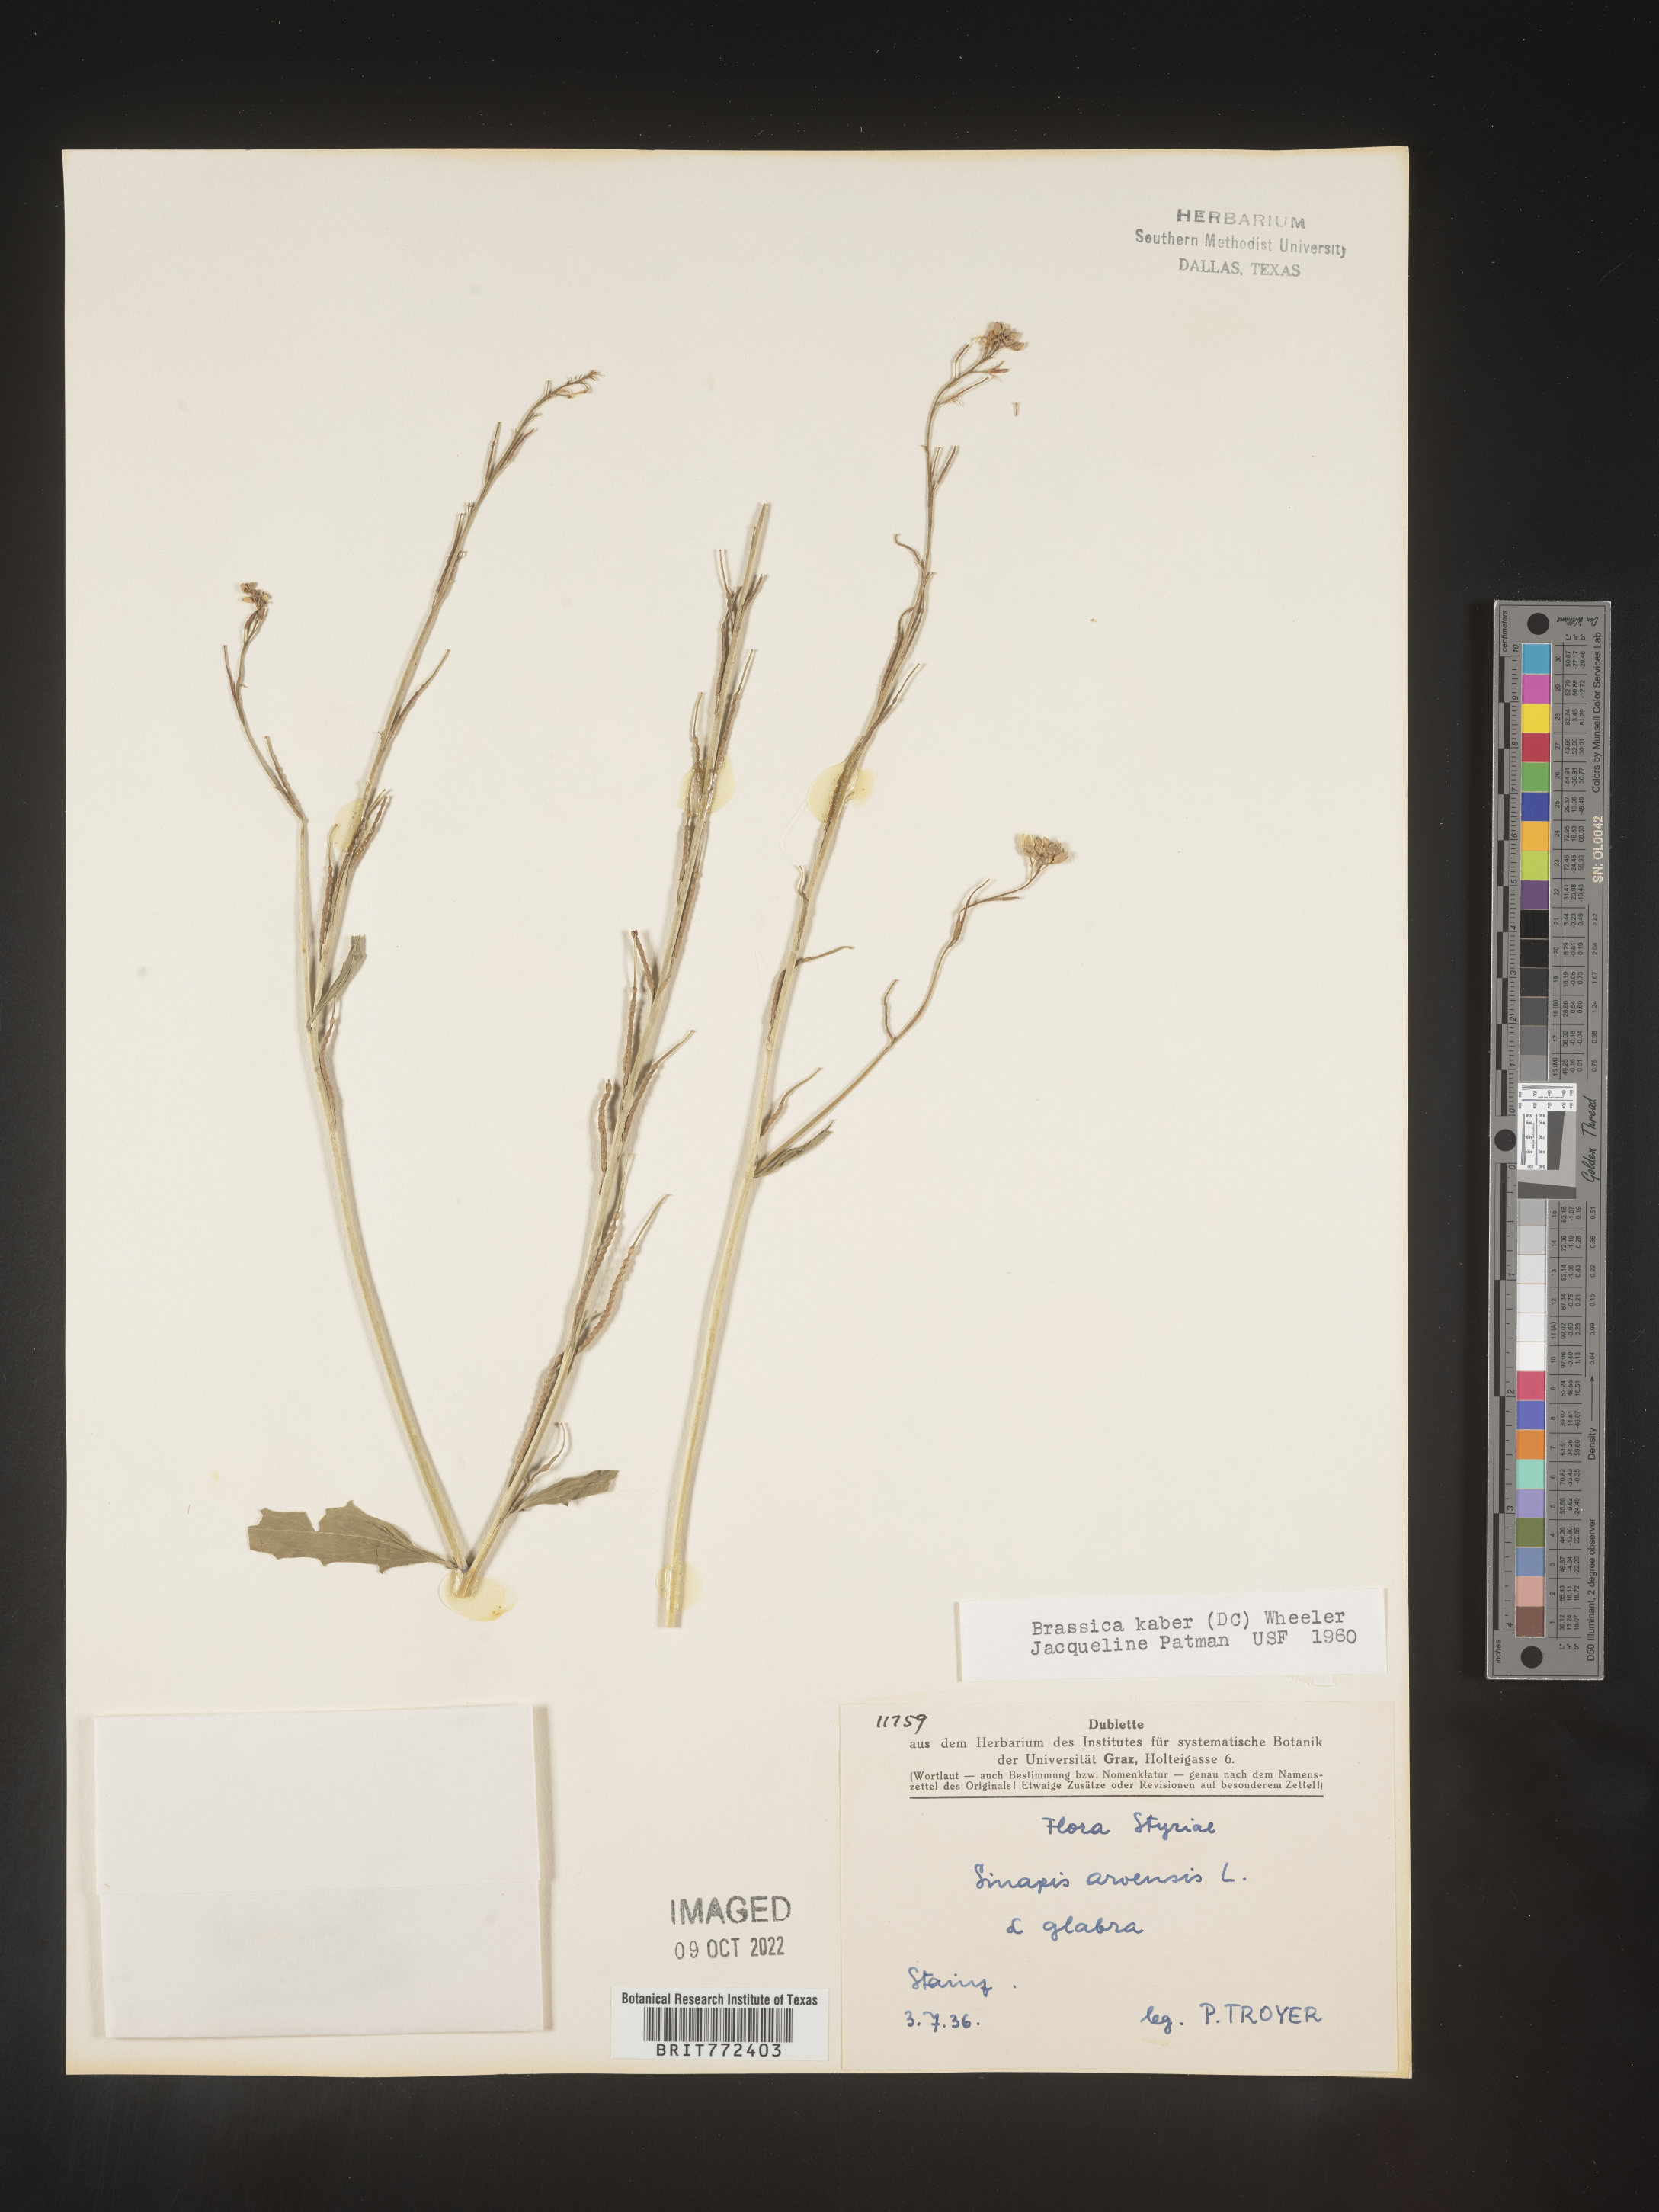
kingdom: Plantae
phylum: Tracheophyta
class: Magnoliopsida
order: Brassicales
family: Brassicaceae
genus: Brassica
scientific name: Brassica
